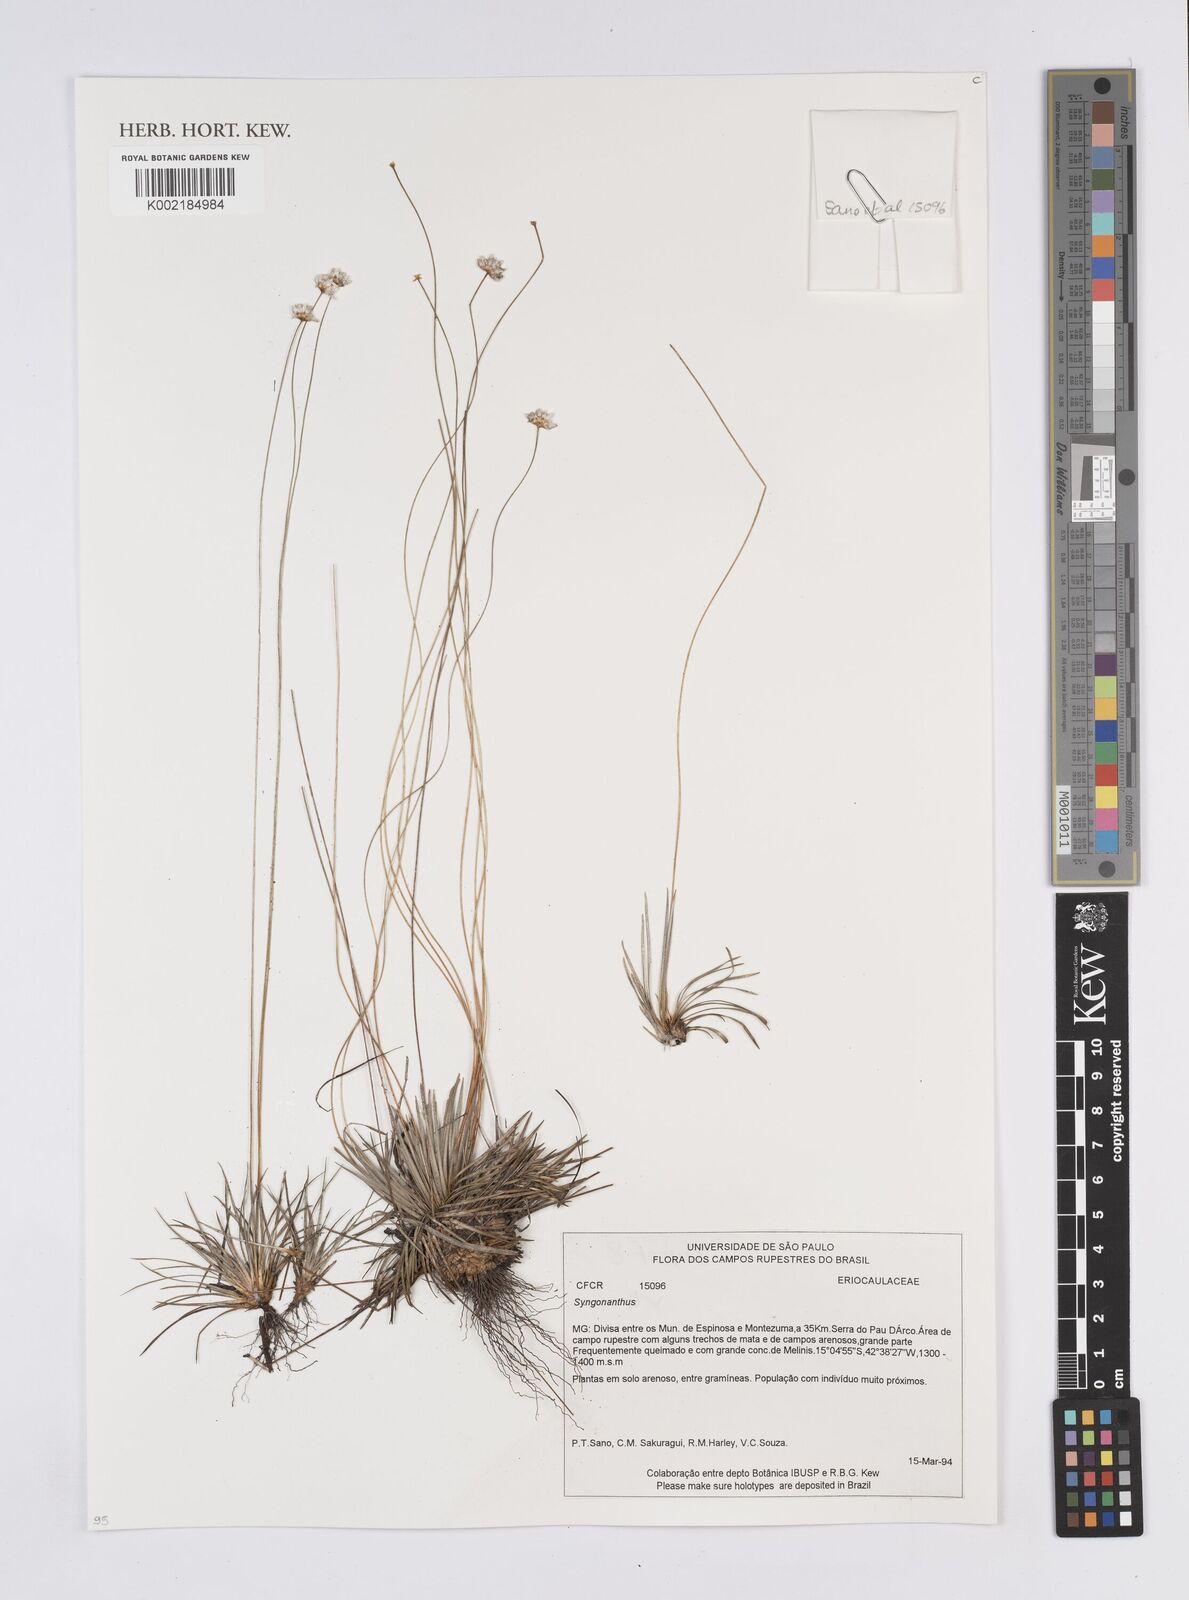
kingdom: Plantae
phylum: Tracheophyta
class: Liliopsida
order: Poales
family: Eriocaulaceae
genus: Comanthera
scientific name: Comanthera
